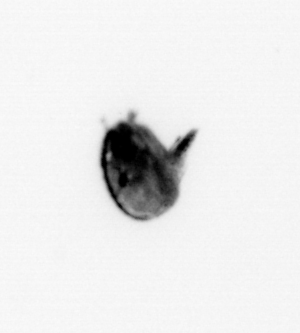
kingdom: Animalia
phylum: Arthropoda
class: Maxillopoda
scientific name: Maxillopoda
